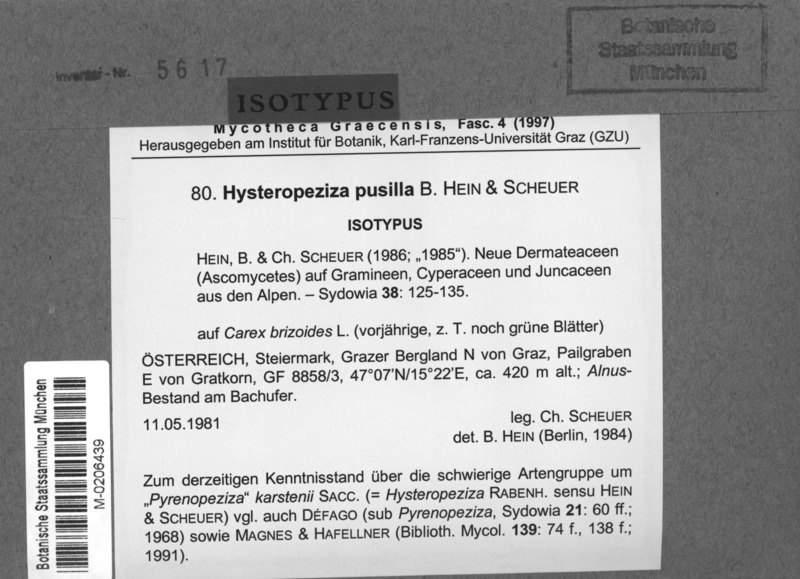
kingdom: Fungi
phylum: Ascomycota
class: Leotiomycetes
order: Helotiales
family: Ploettnerulaceae
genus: Pyrenopeziza
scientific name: Pyrenopeziza perminuta
